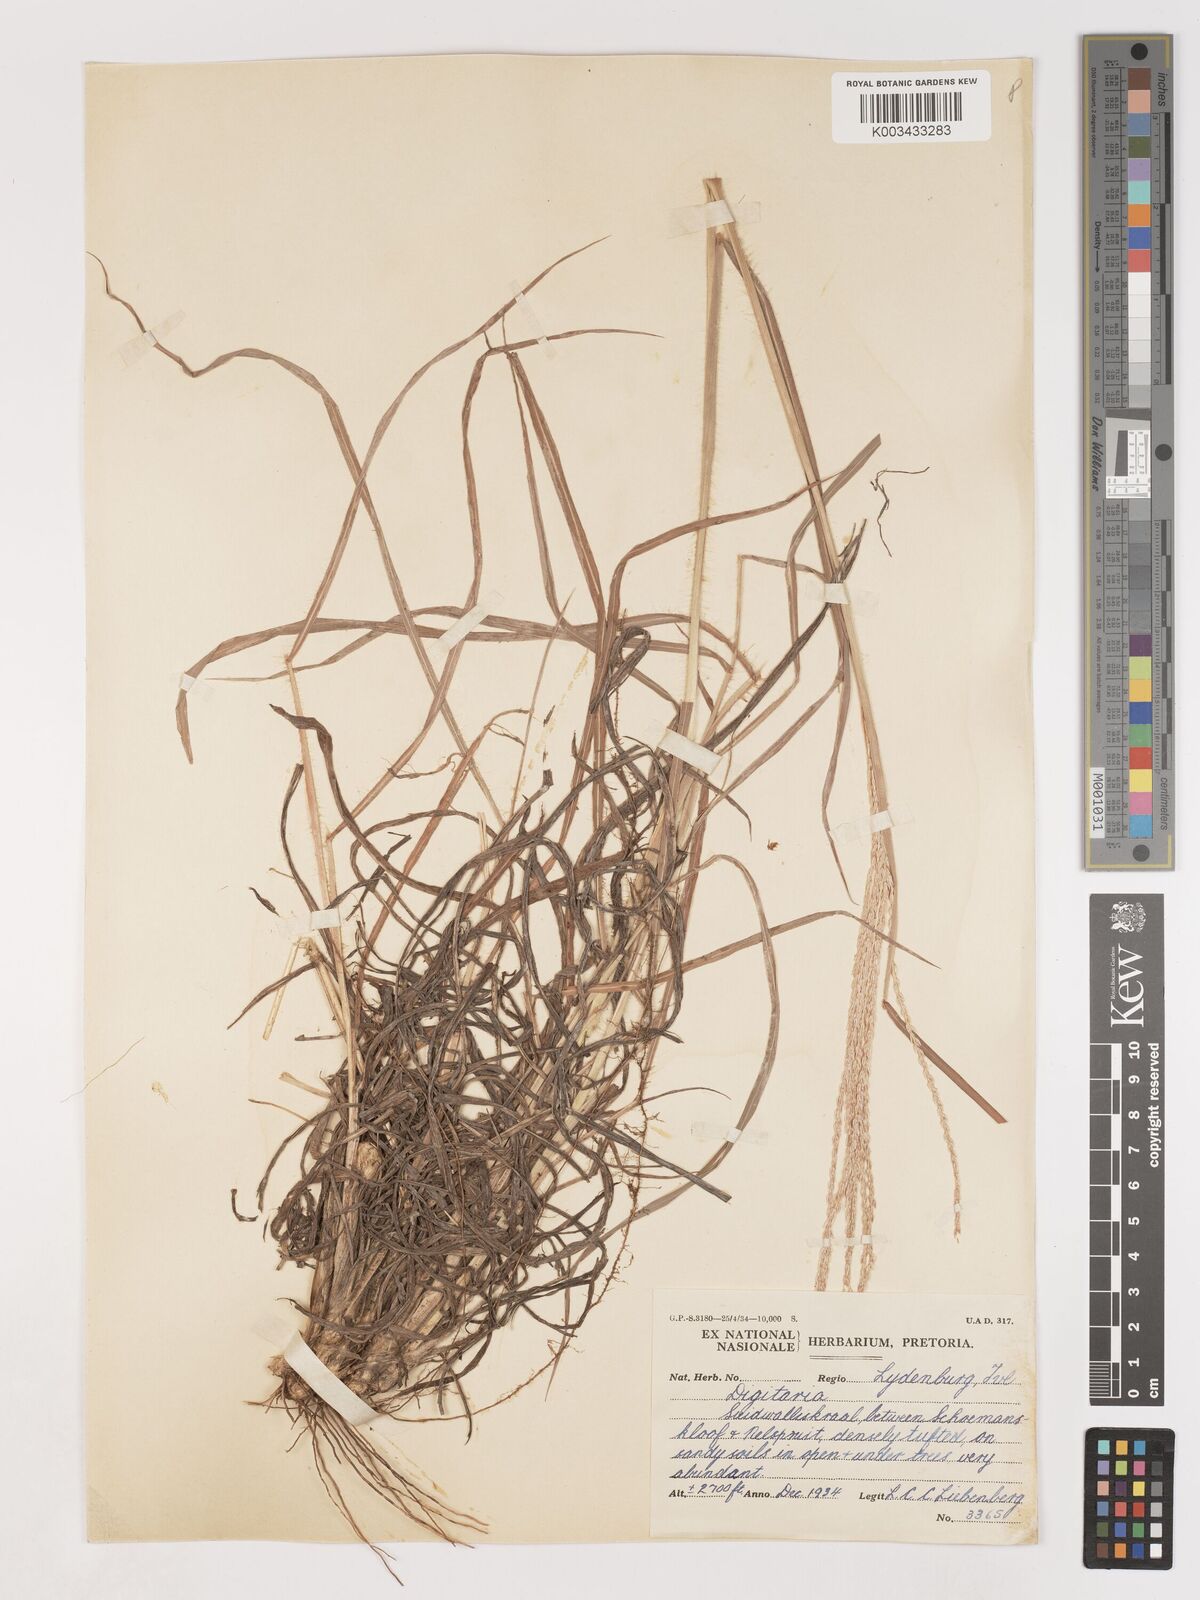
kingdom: Plantae
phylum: Tracheophyta
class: Liliopsida
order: Poales
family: Poaceae
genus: Digitaria
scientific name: Digitaria eriantha
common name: Digitgrass
